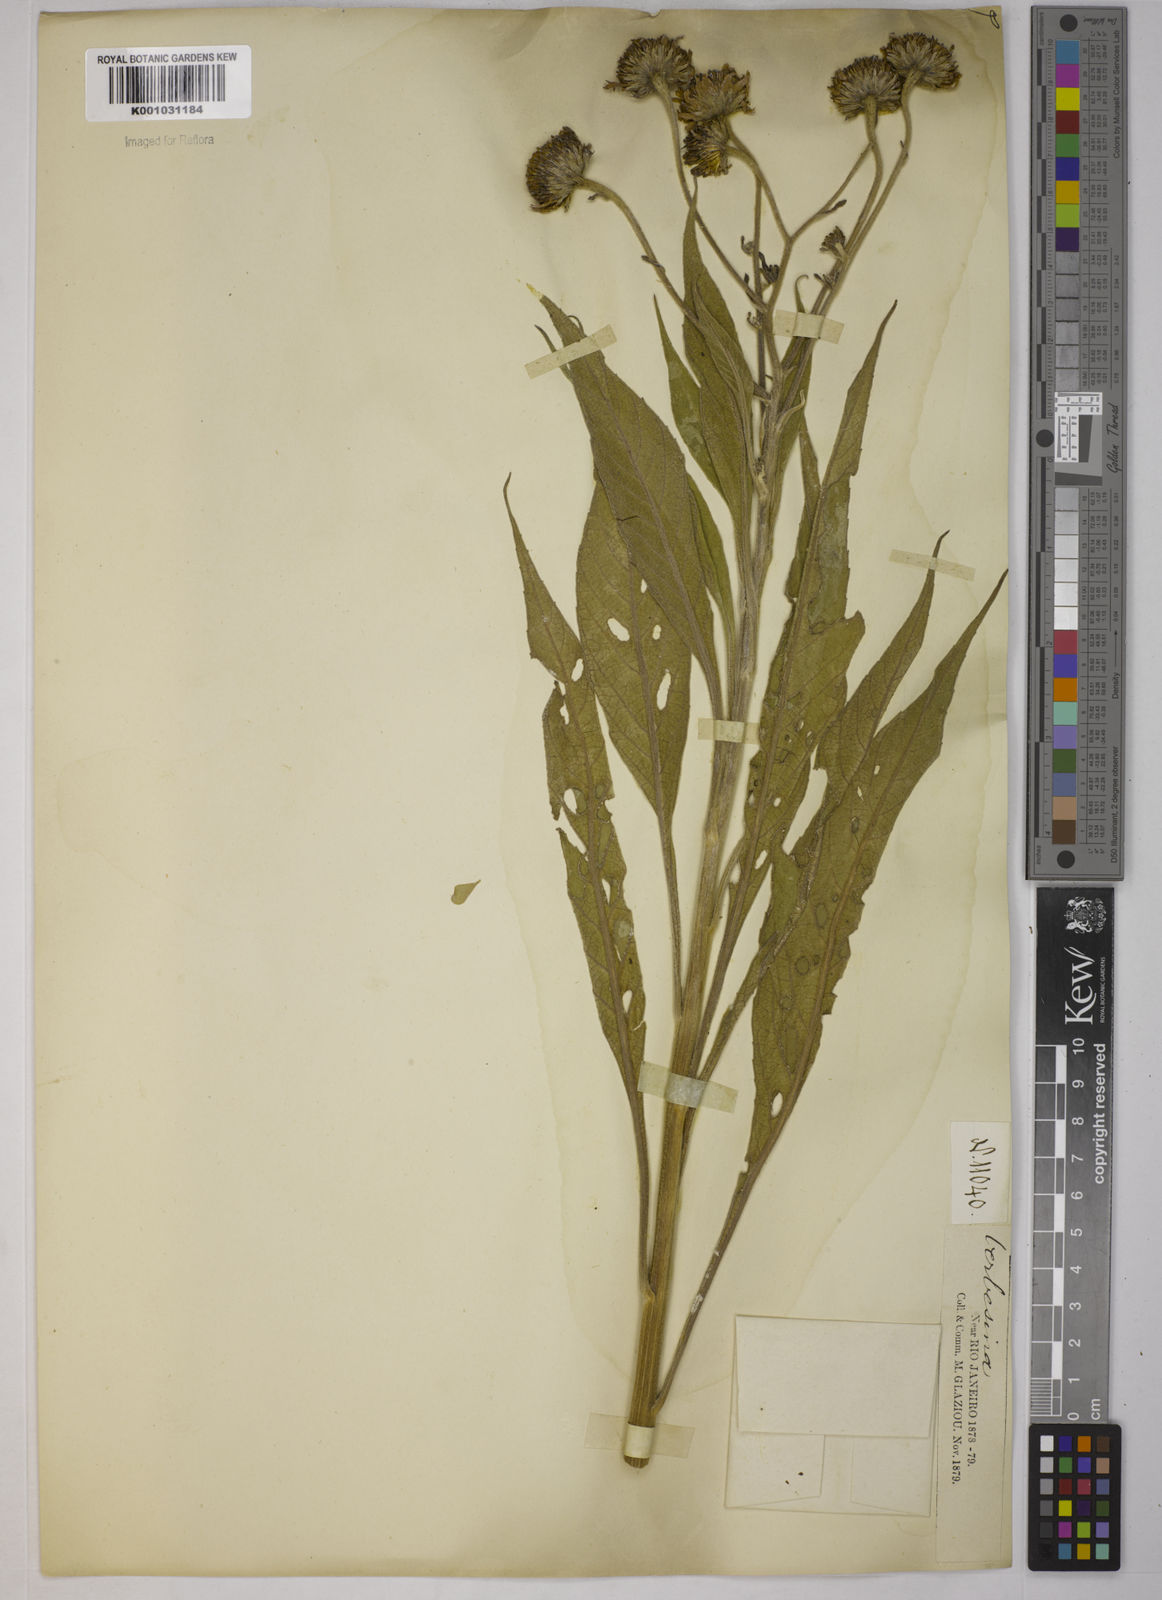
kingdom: Plantae
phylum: Tracheophyta
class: Magnoliopsida
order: Asterales
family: Asteraceae
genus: Verbesina
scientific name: Verbesina
